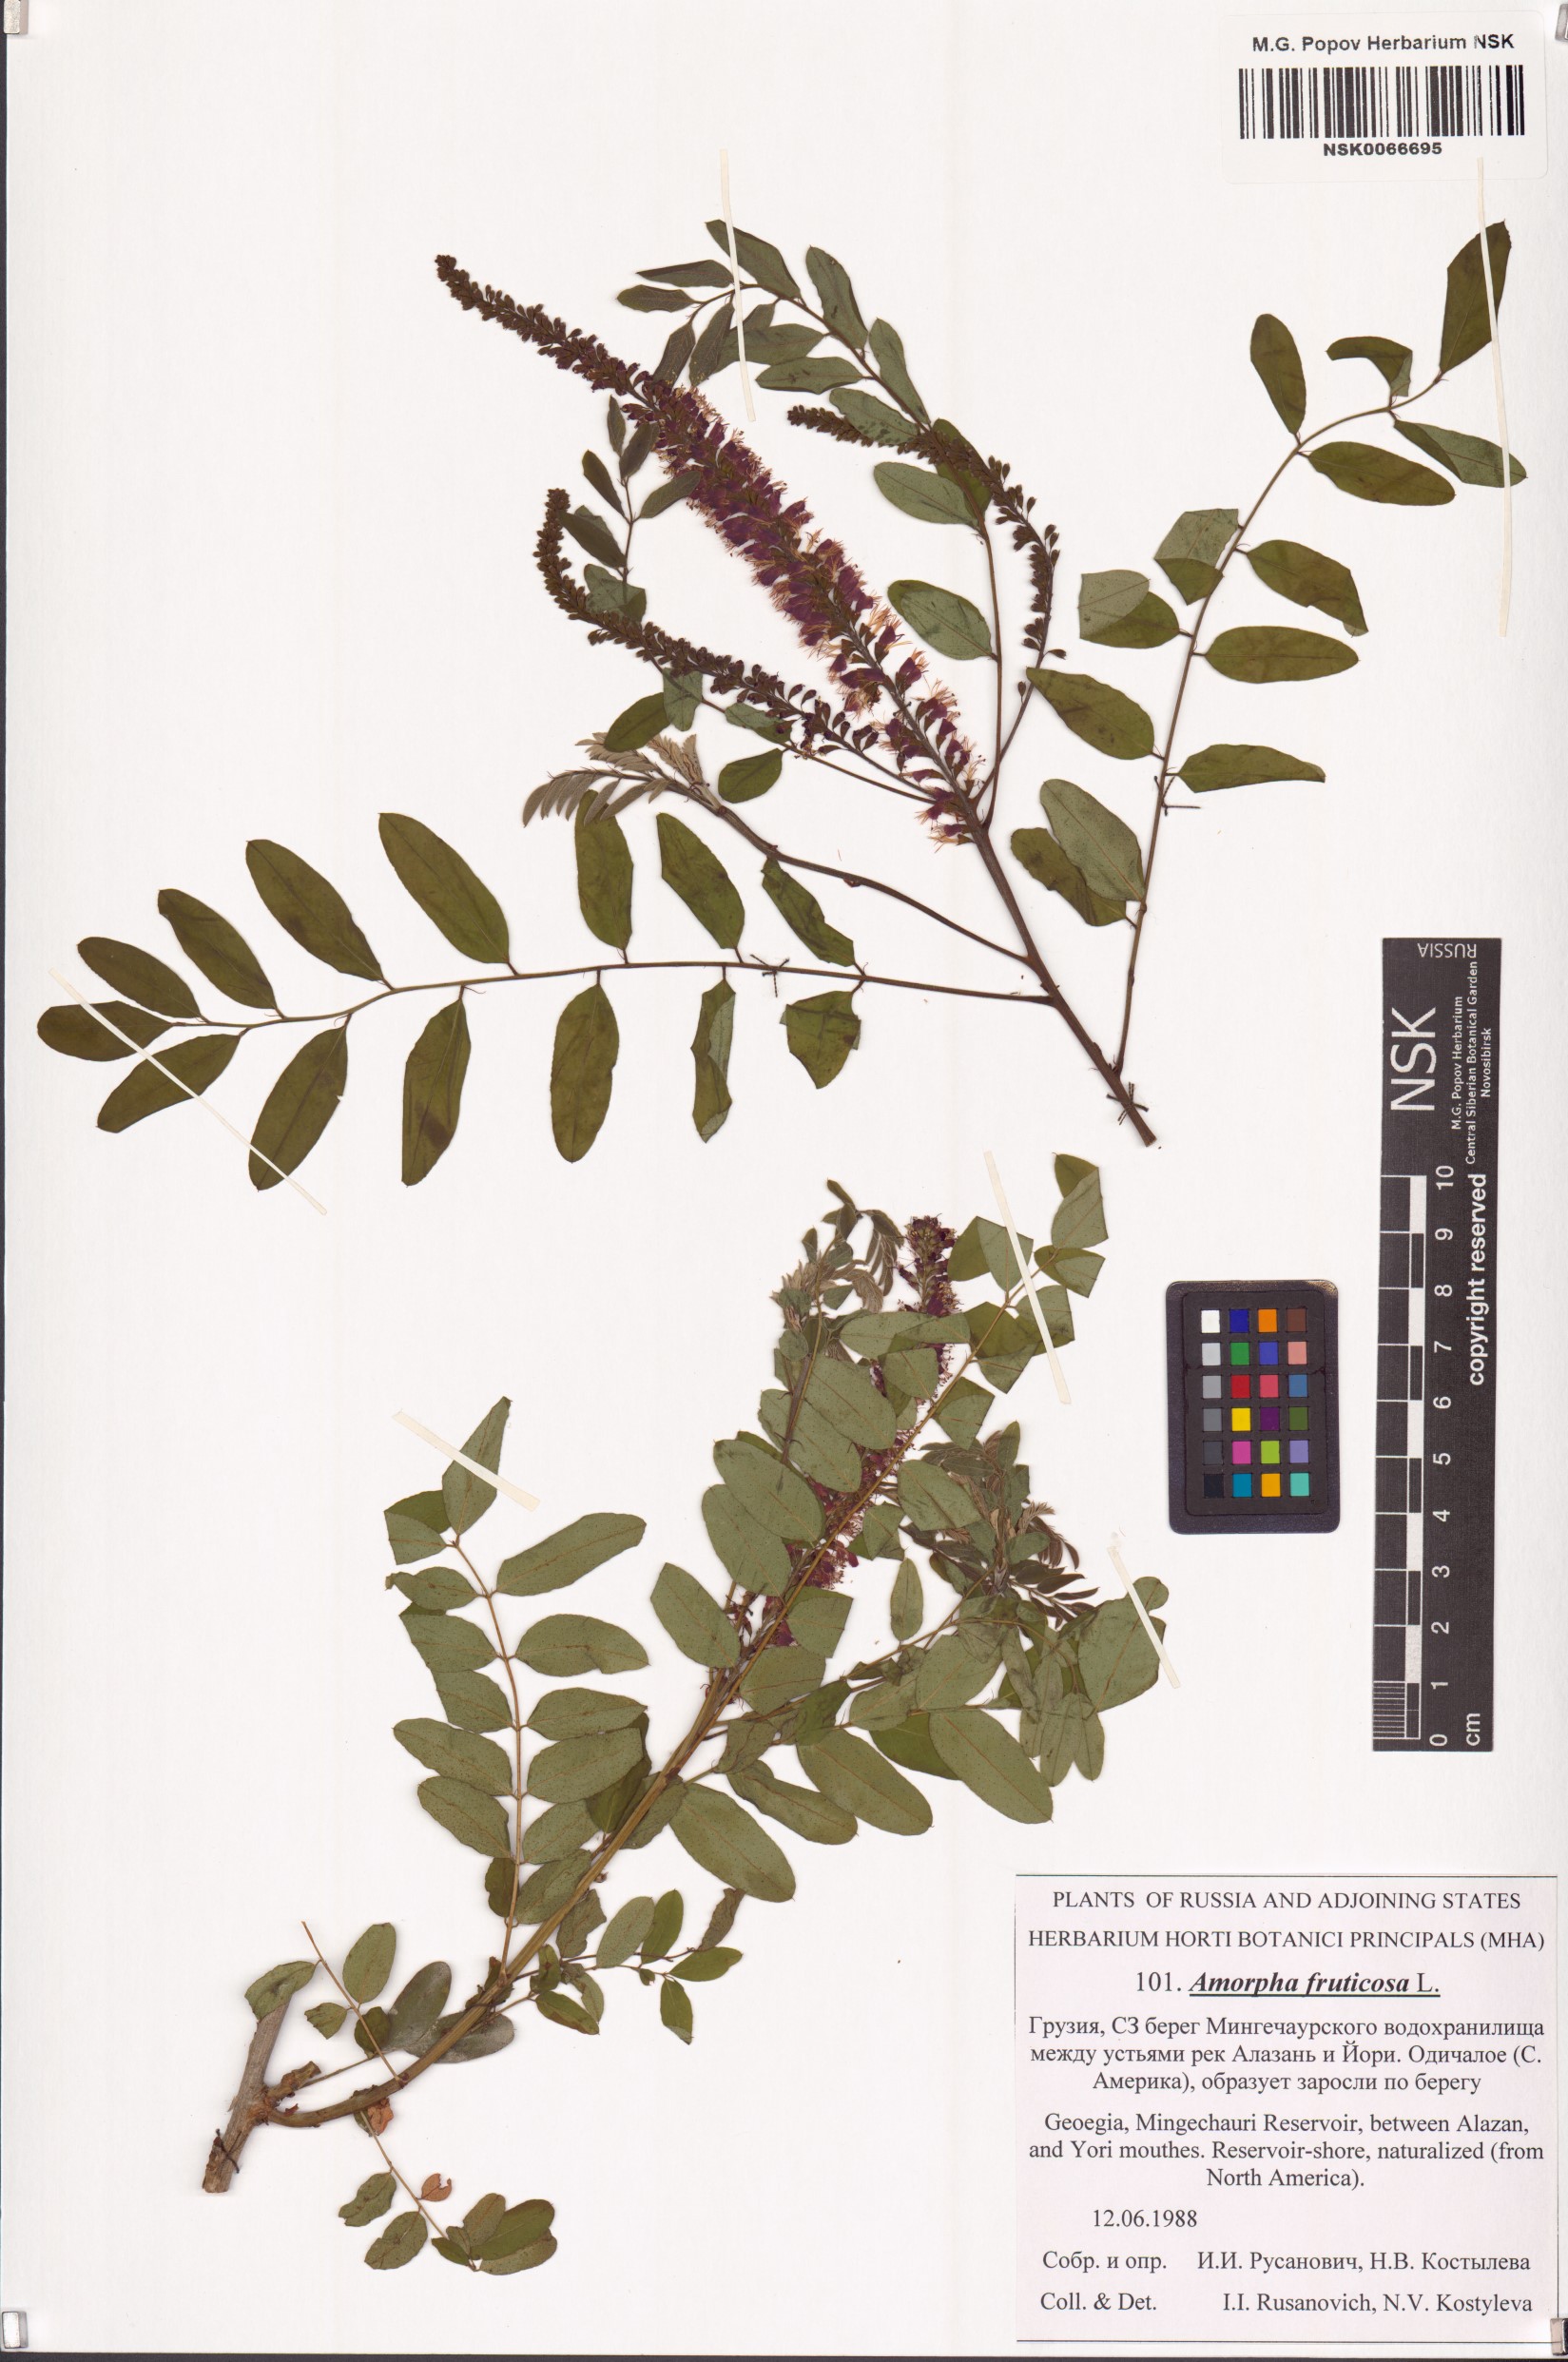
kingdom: Plantae
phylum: Tracheophyta
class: Magnoliopsida
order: Fabales
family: Fabaceae
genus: Amorpha
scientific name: Amorpha fruticosa
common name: False indigo
